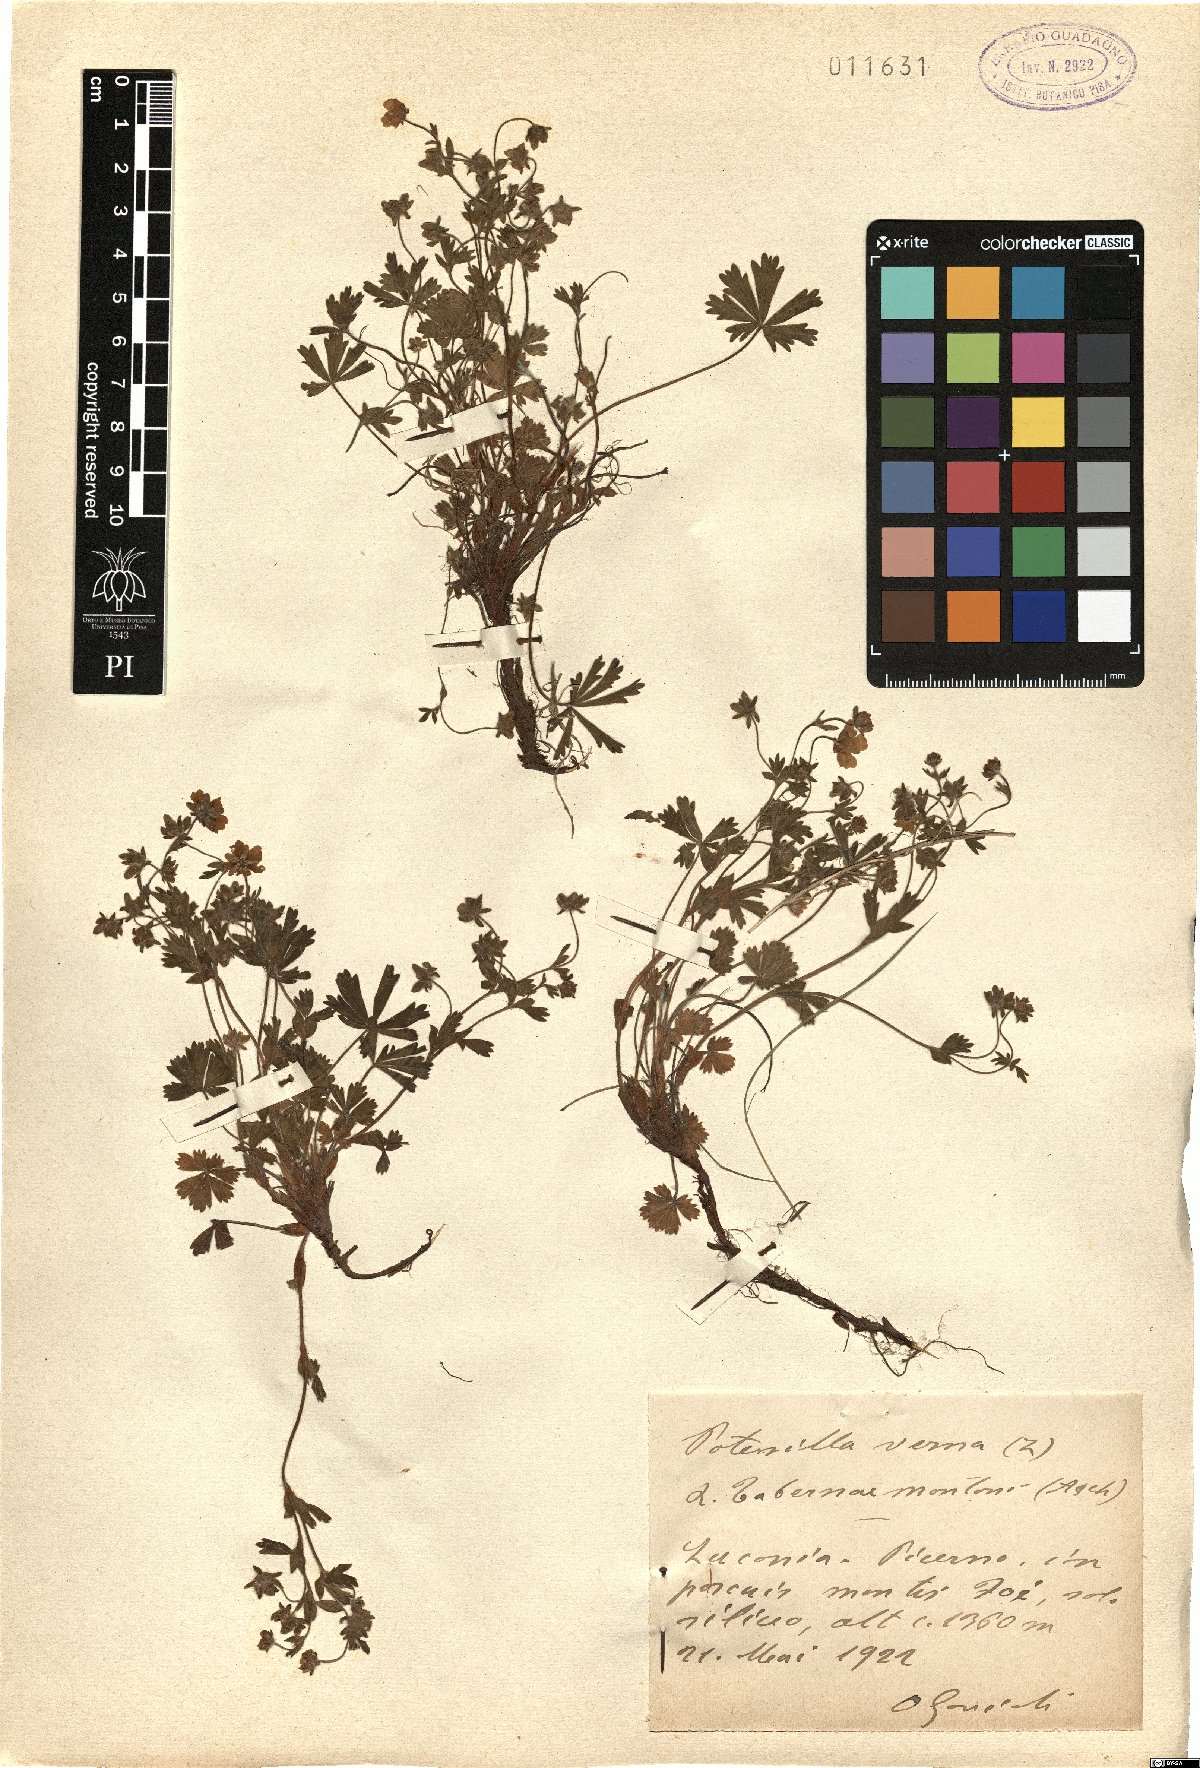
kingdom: Plantae
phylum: Tracheophyta
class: Magnoliopsida
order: Rosales
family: Rosaceae
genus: Potentilla
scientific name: Potentilla verna
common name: Spring cinquefoil
